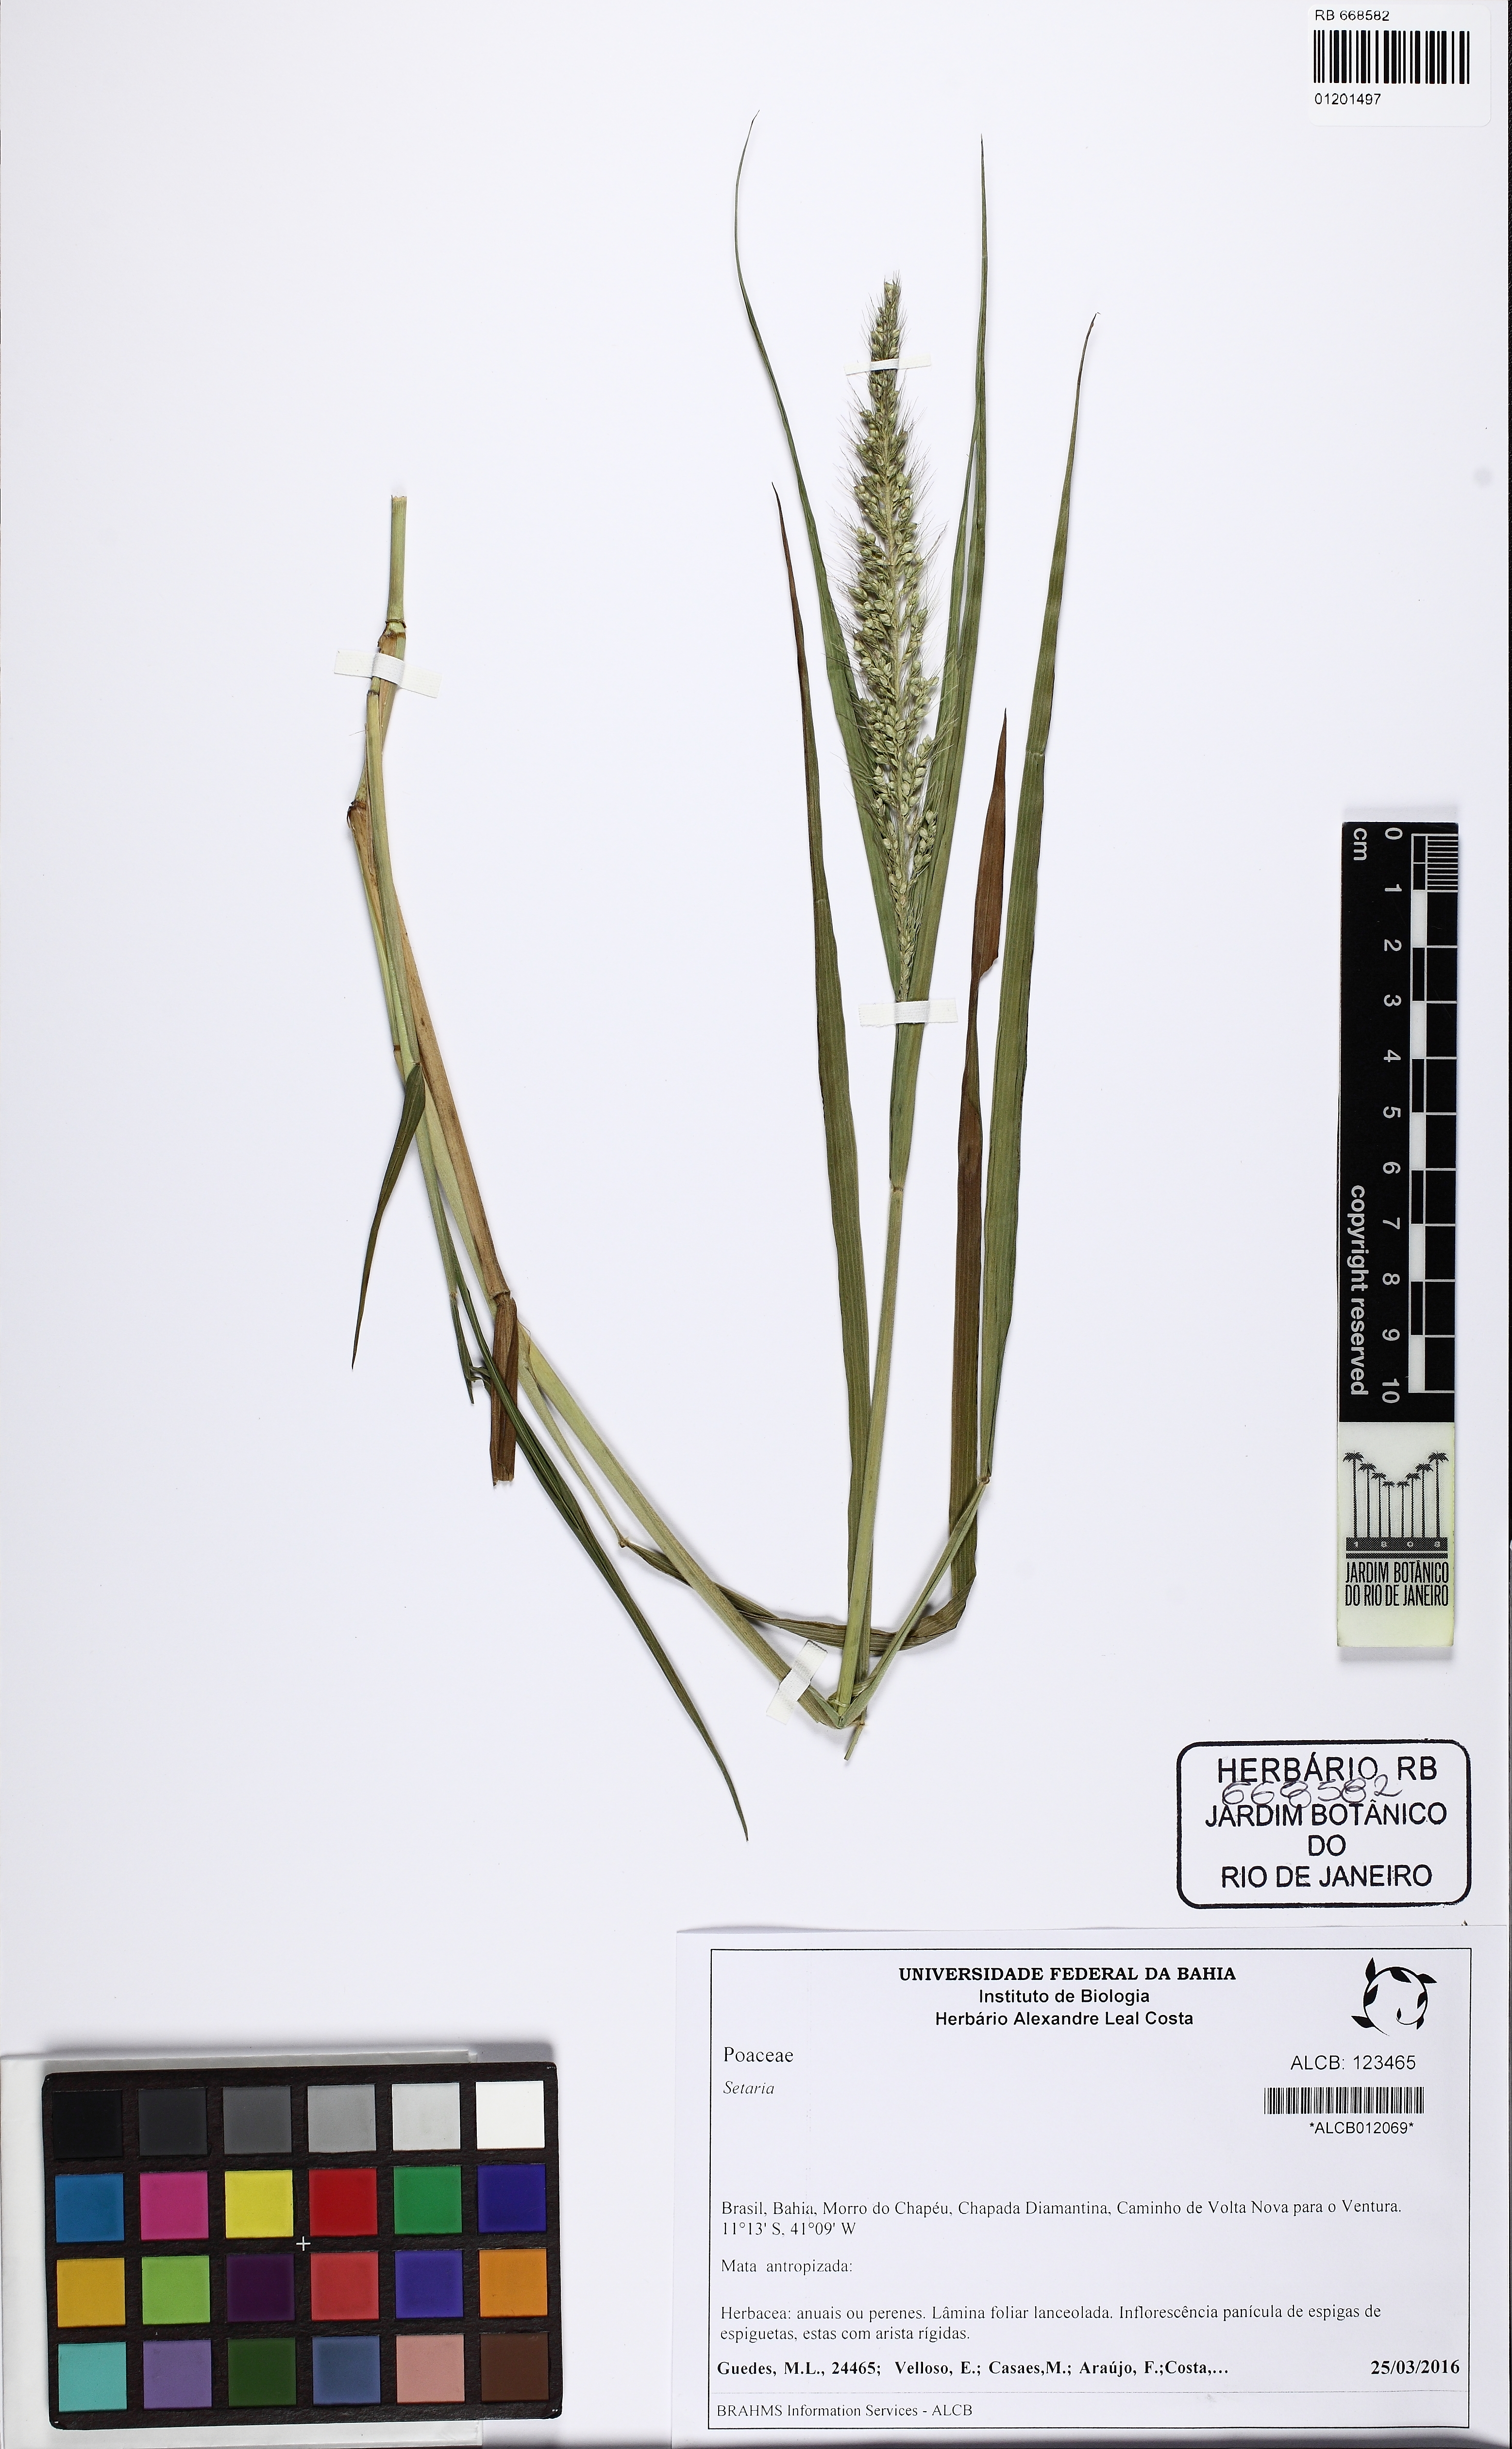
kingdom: Plantae
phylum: Tracheophyta
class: Liliopsida
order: Poales
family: Poaceae
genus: Setaria
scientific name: Setaria
